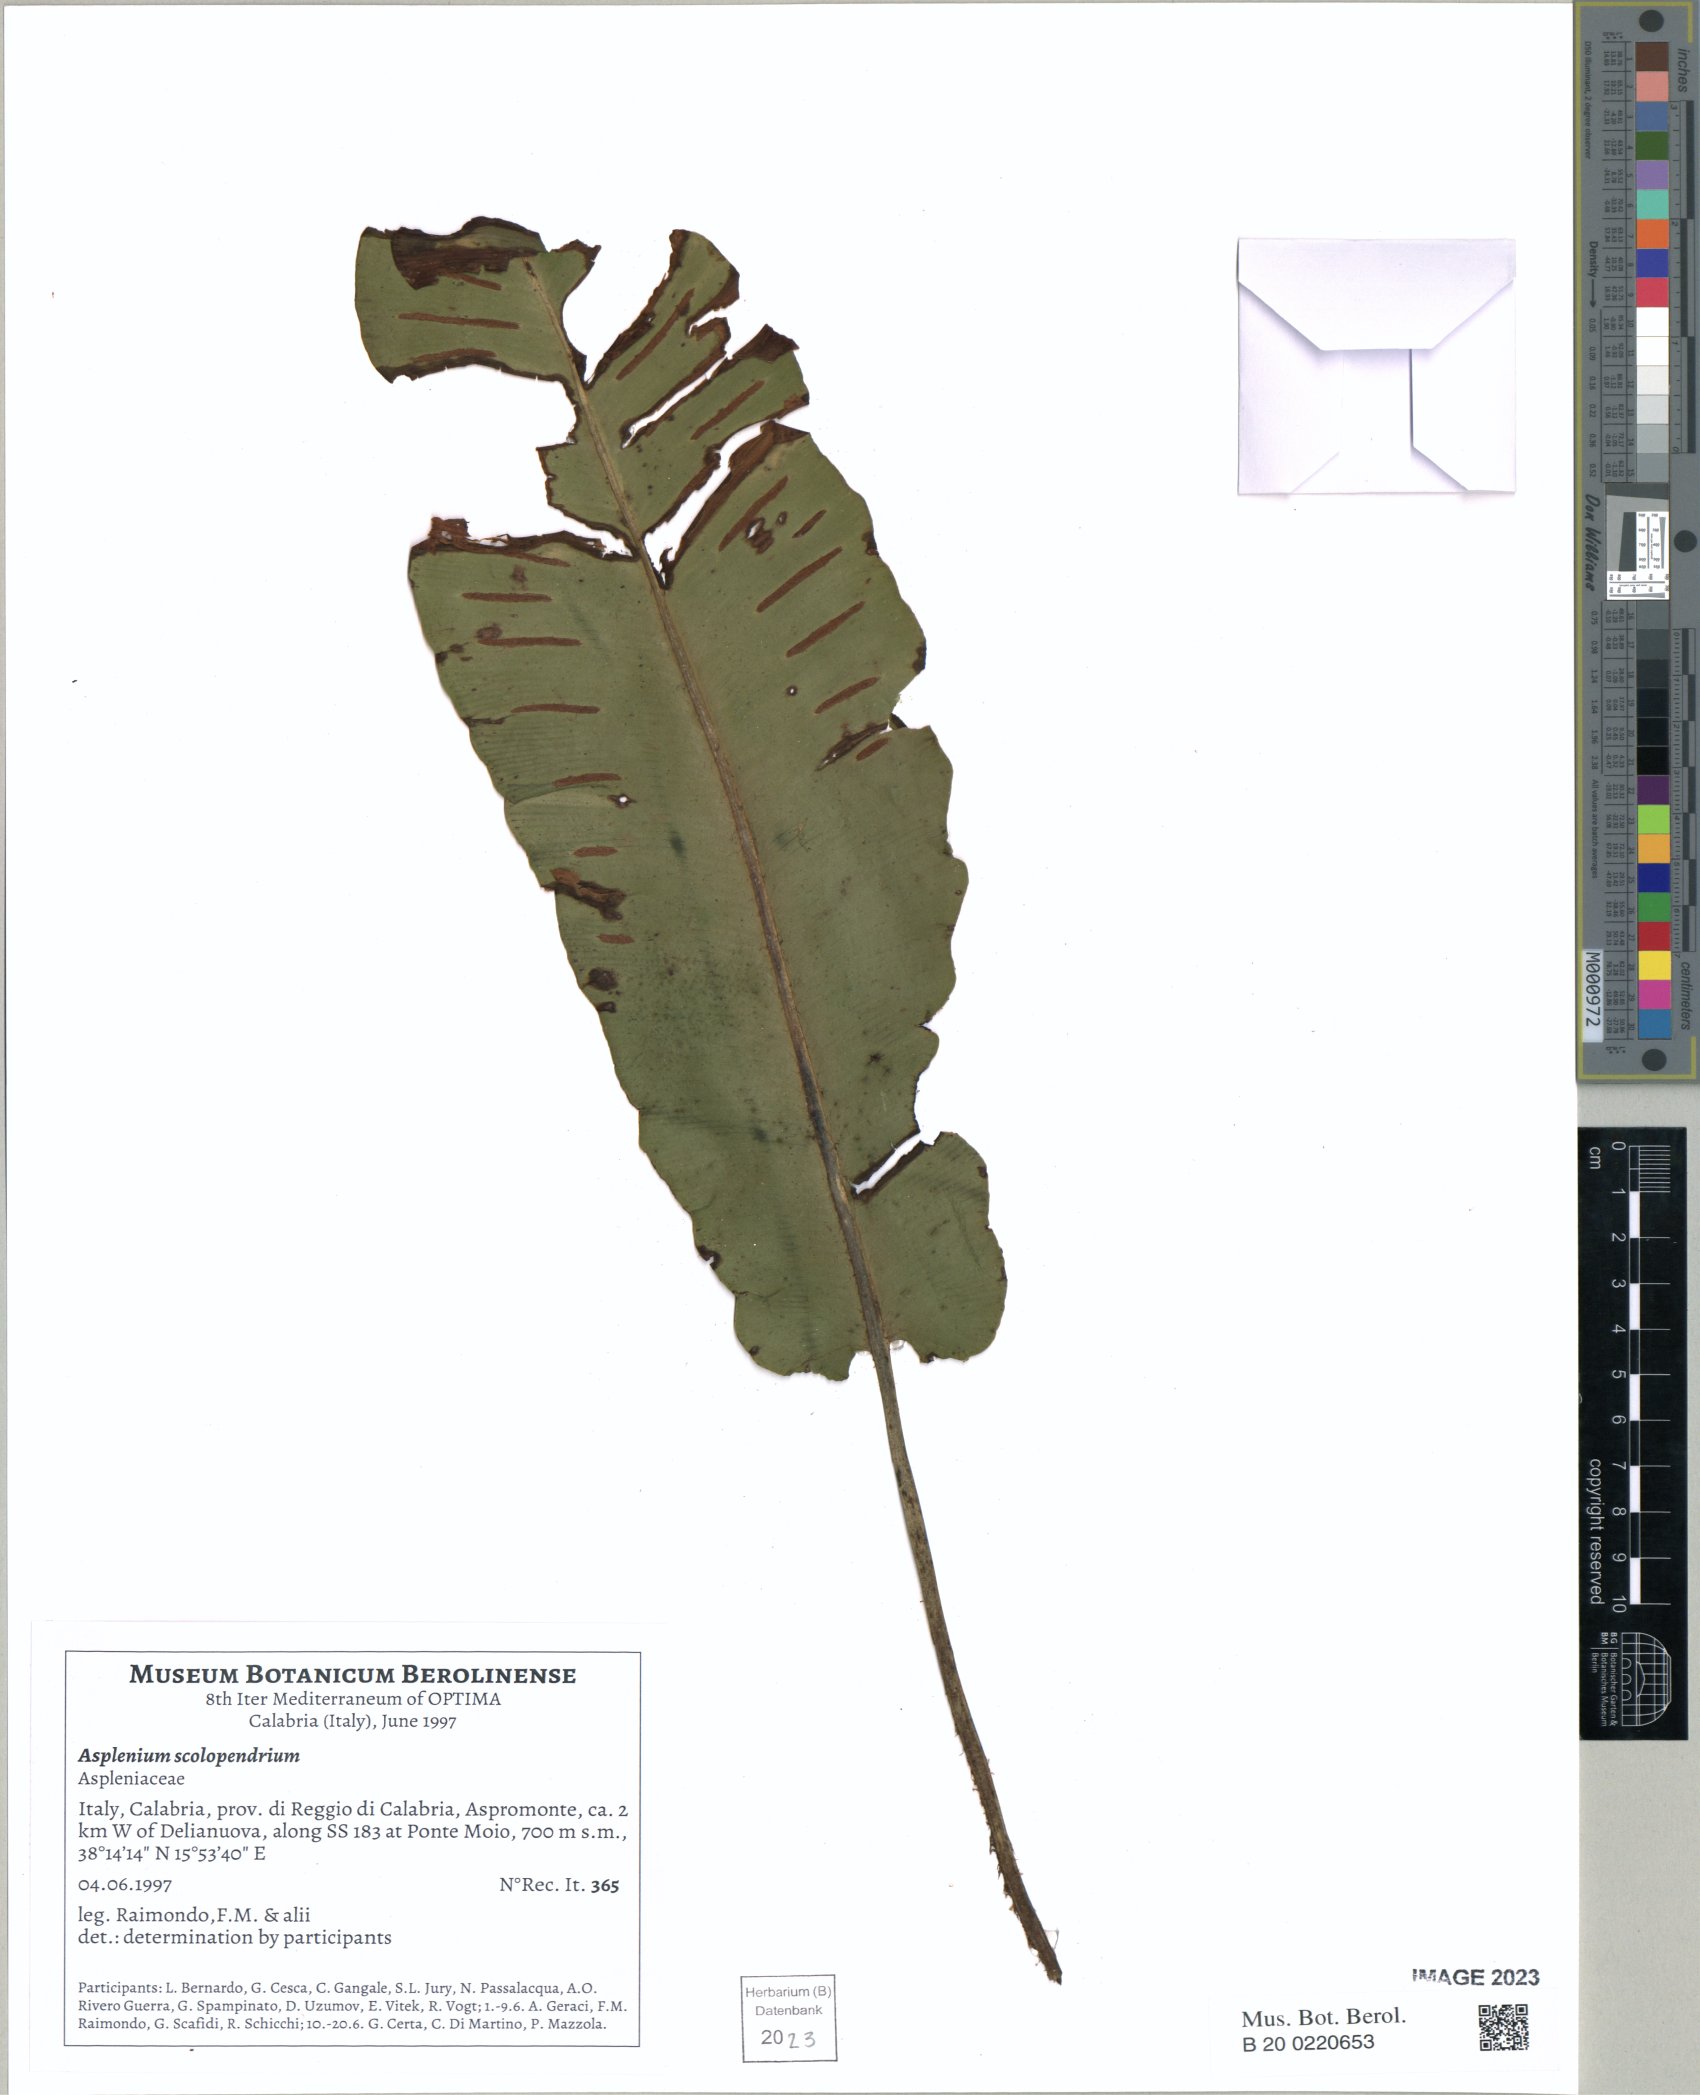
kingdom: Plantae
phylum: Tracheophyta
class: Polypodiopsida
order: Polypodiales
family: Aspleniaceae
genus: Asplenium
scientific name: Asplenium scolopendrium
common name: Hart's-tongue fern
